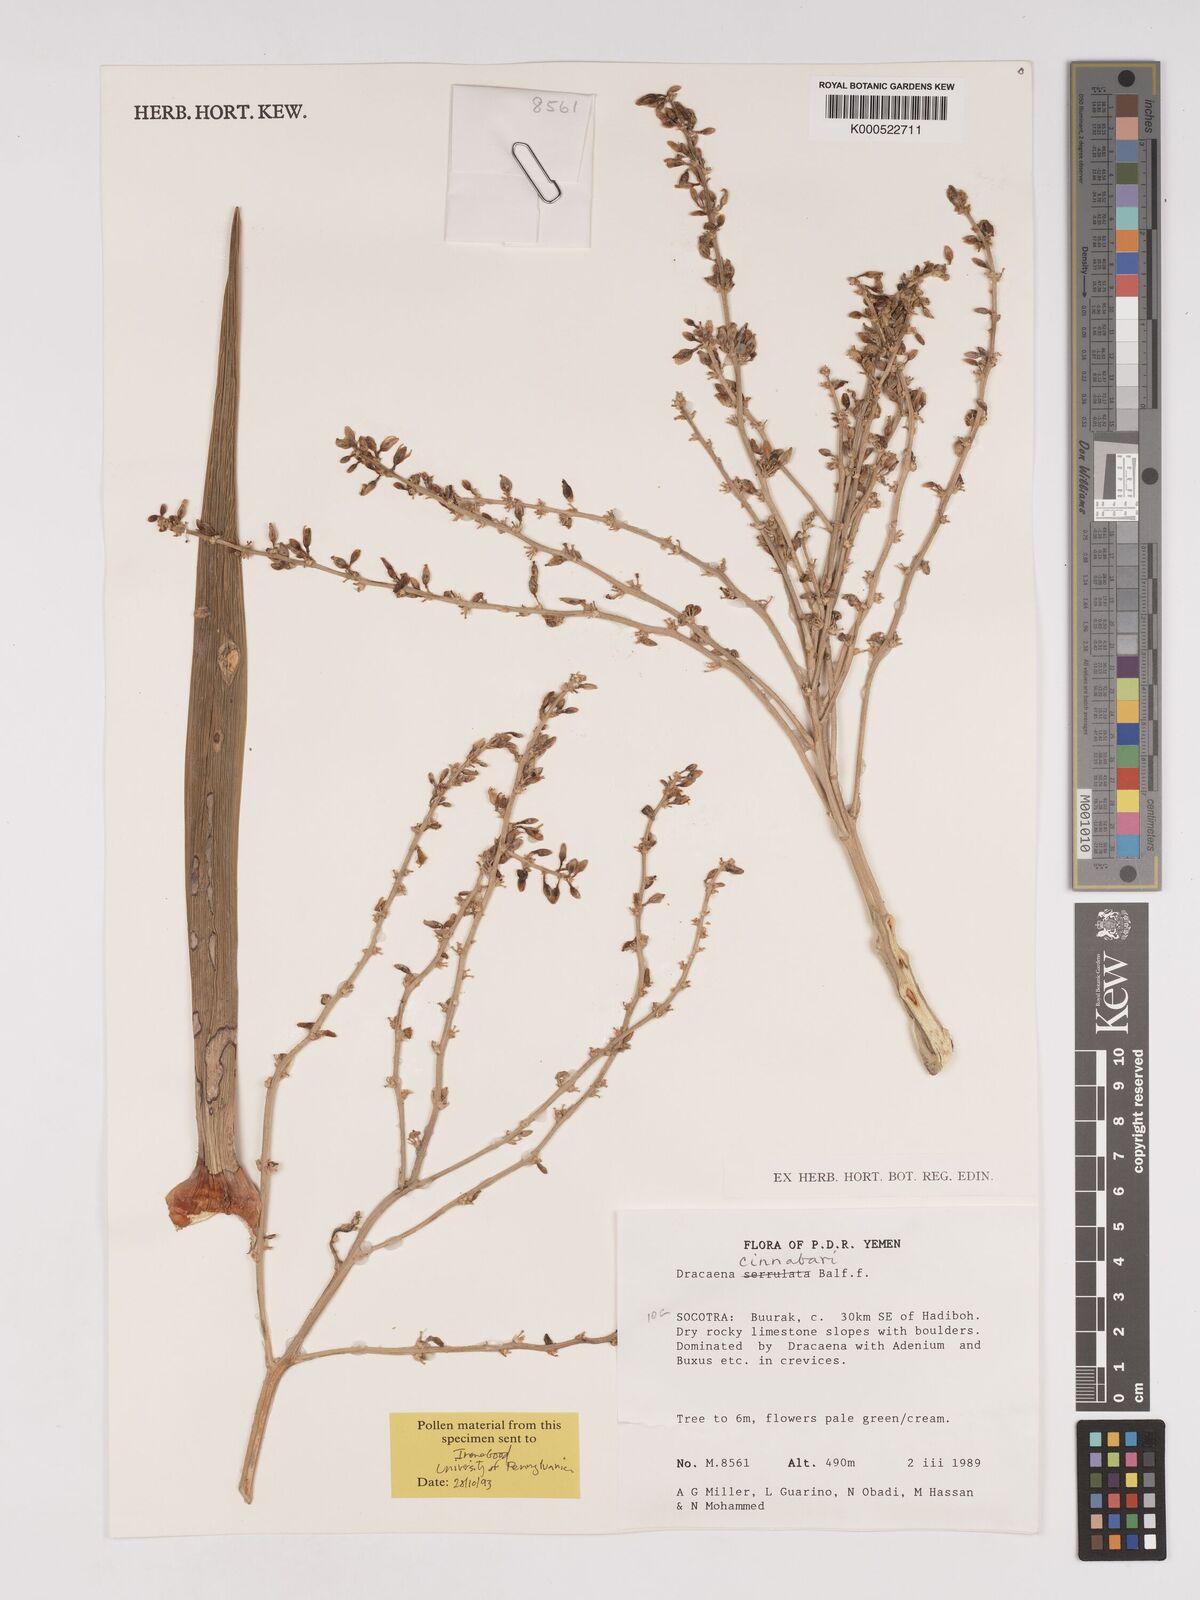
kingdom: Plantae
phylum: Tracheophyta
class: Liliopsida
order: Asparagales
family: Asparagaceae
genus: Dracaena
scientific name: Dracaena cinnabari
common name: Dragon's blood tree
